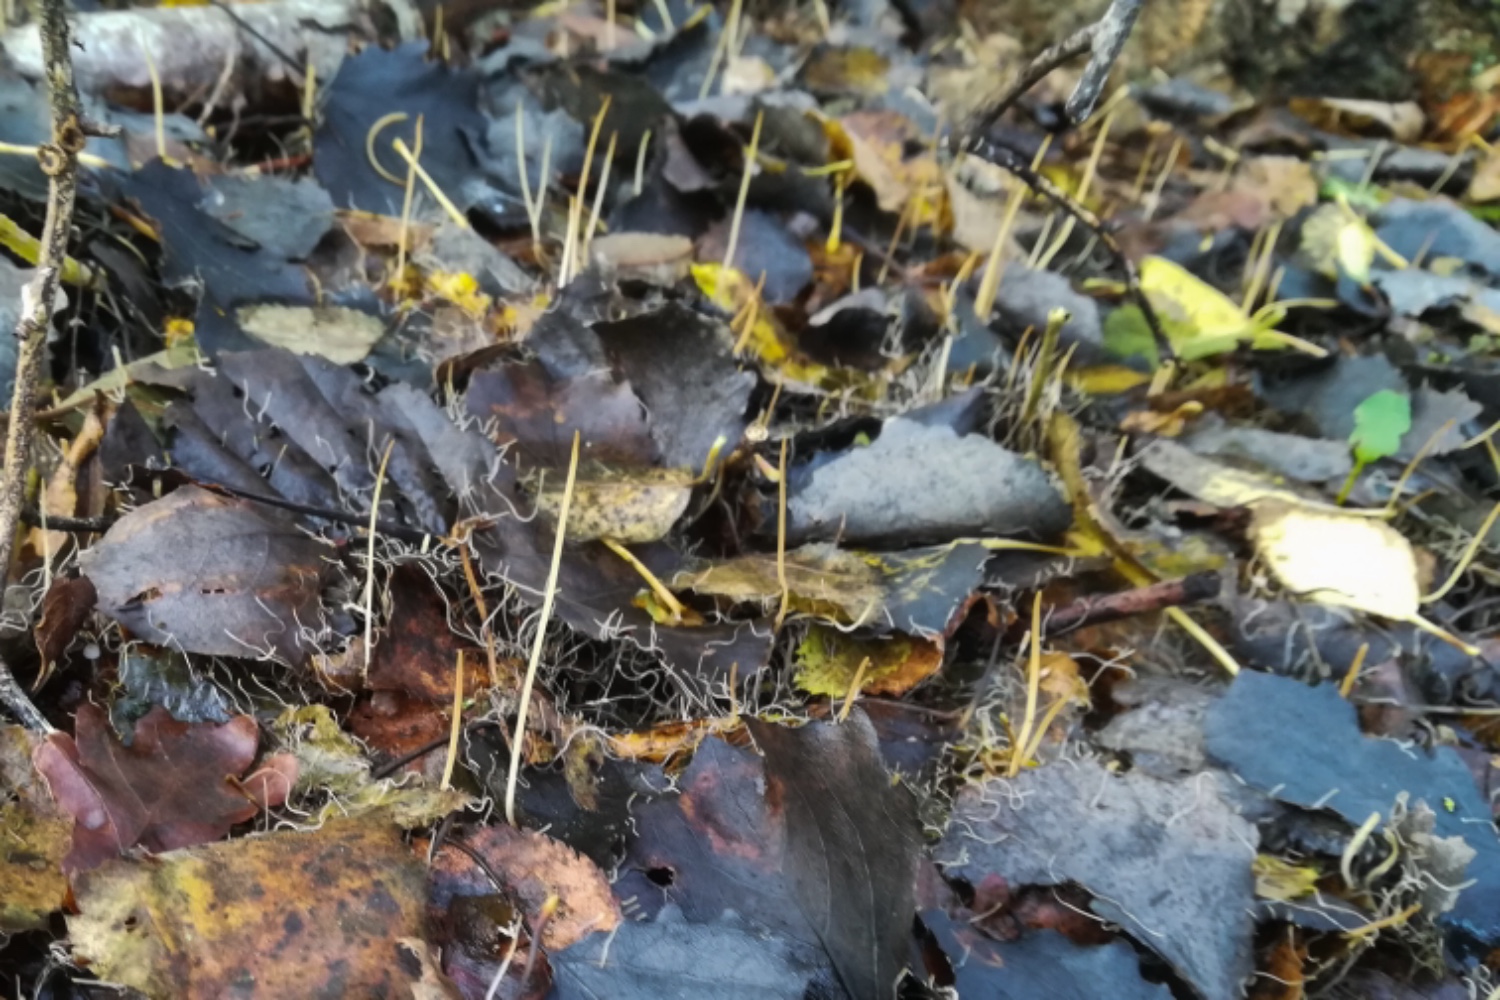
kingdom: Fungi
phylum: Basidiomycota
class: Agaricomycetes
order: Agaricales
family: Typhulaceae
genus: Typhula
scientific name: Typhula juncea
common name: trådagtig rørkølle
